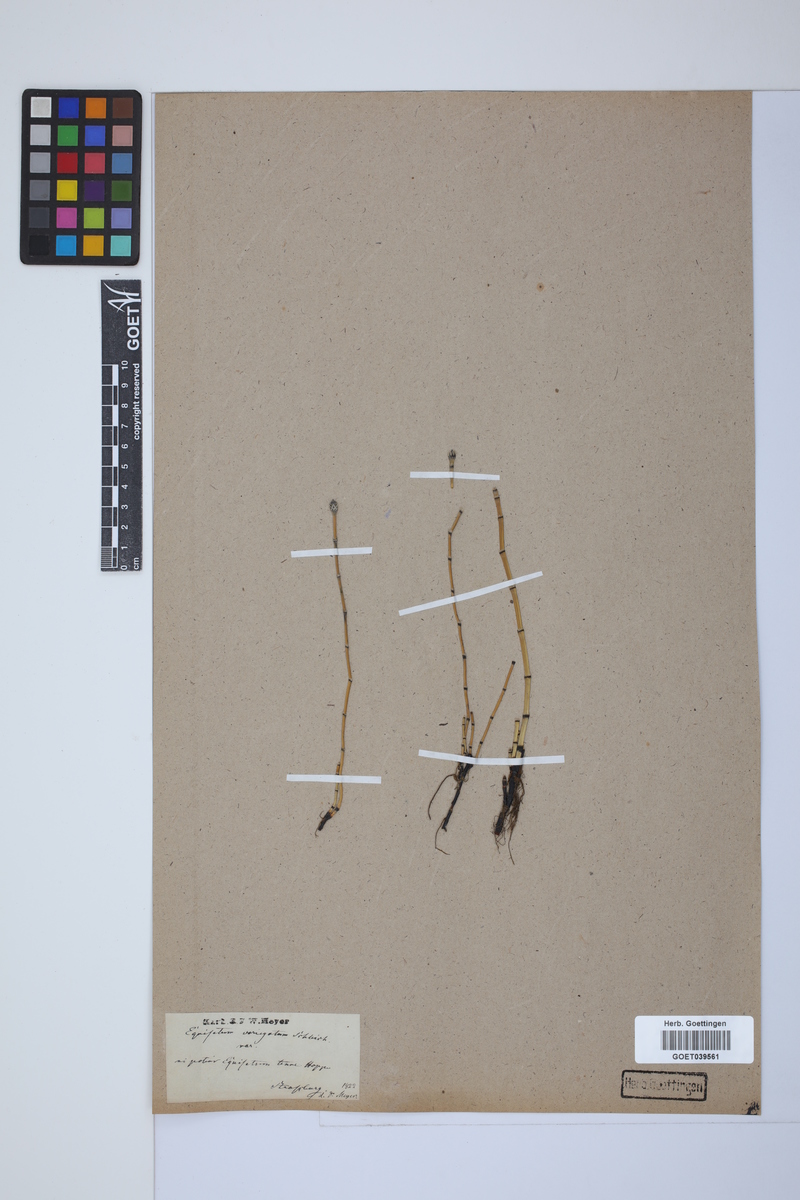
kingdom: Plantae
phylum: Tracheophyta
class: Polypodiopsida
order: Equisetales
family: Equisetaceae
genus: Equisetum
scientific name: Equisetum variegatum
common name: Variegated horsetail
